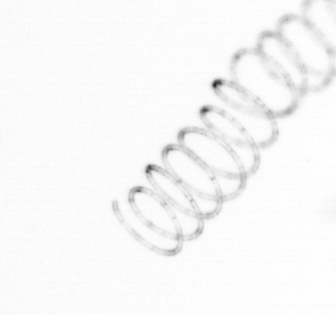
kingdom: Chromista
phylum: Ochrophyta
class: Bacillariophyceae
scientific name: Bacillariophyceae
